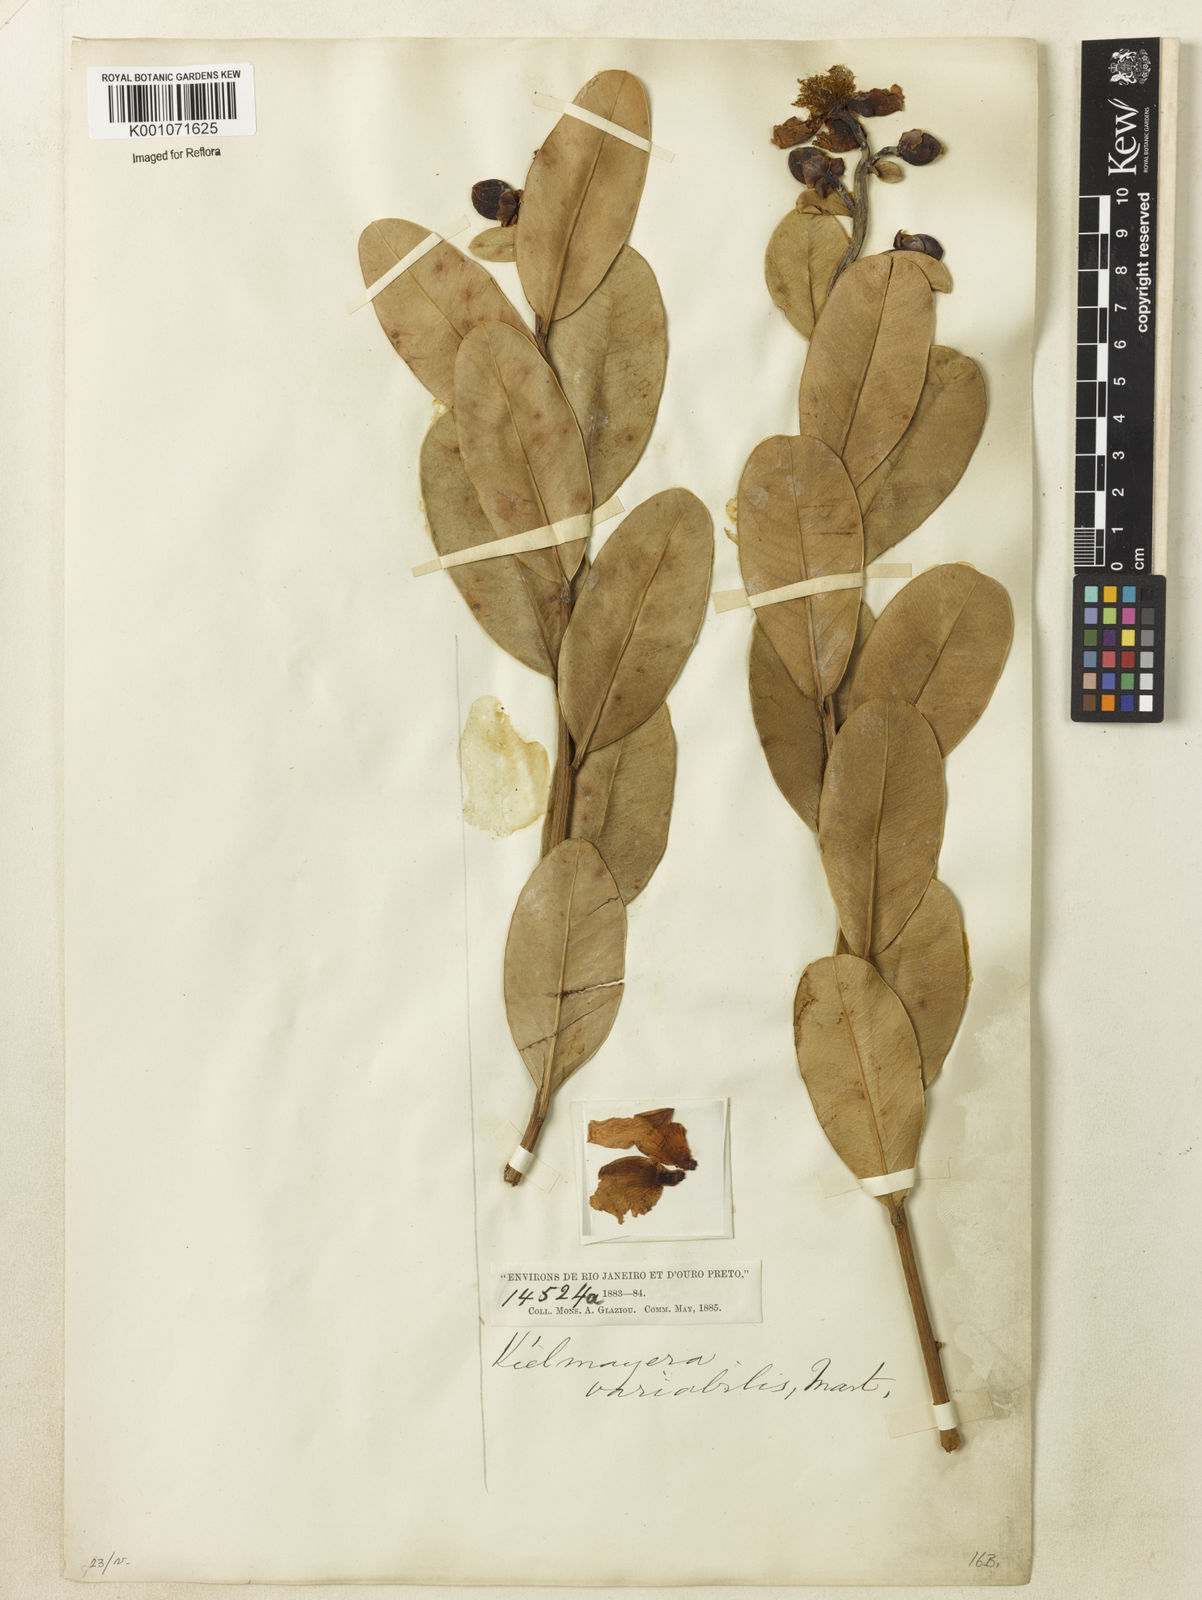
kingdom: Plantae
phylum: Tracheophyta
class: Magnoliopsida
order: Malpighiales
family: Calophyllaceae
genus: Kielmeyera
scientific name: Kielmeyera variabilis
